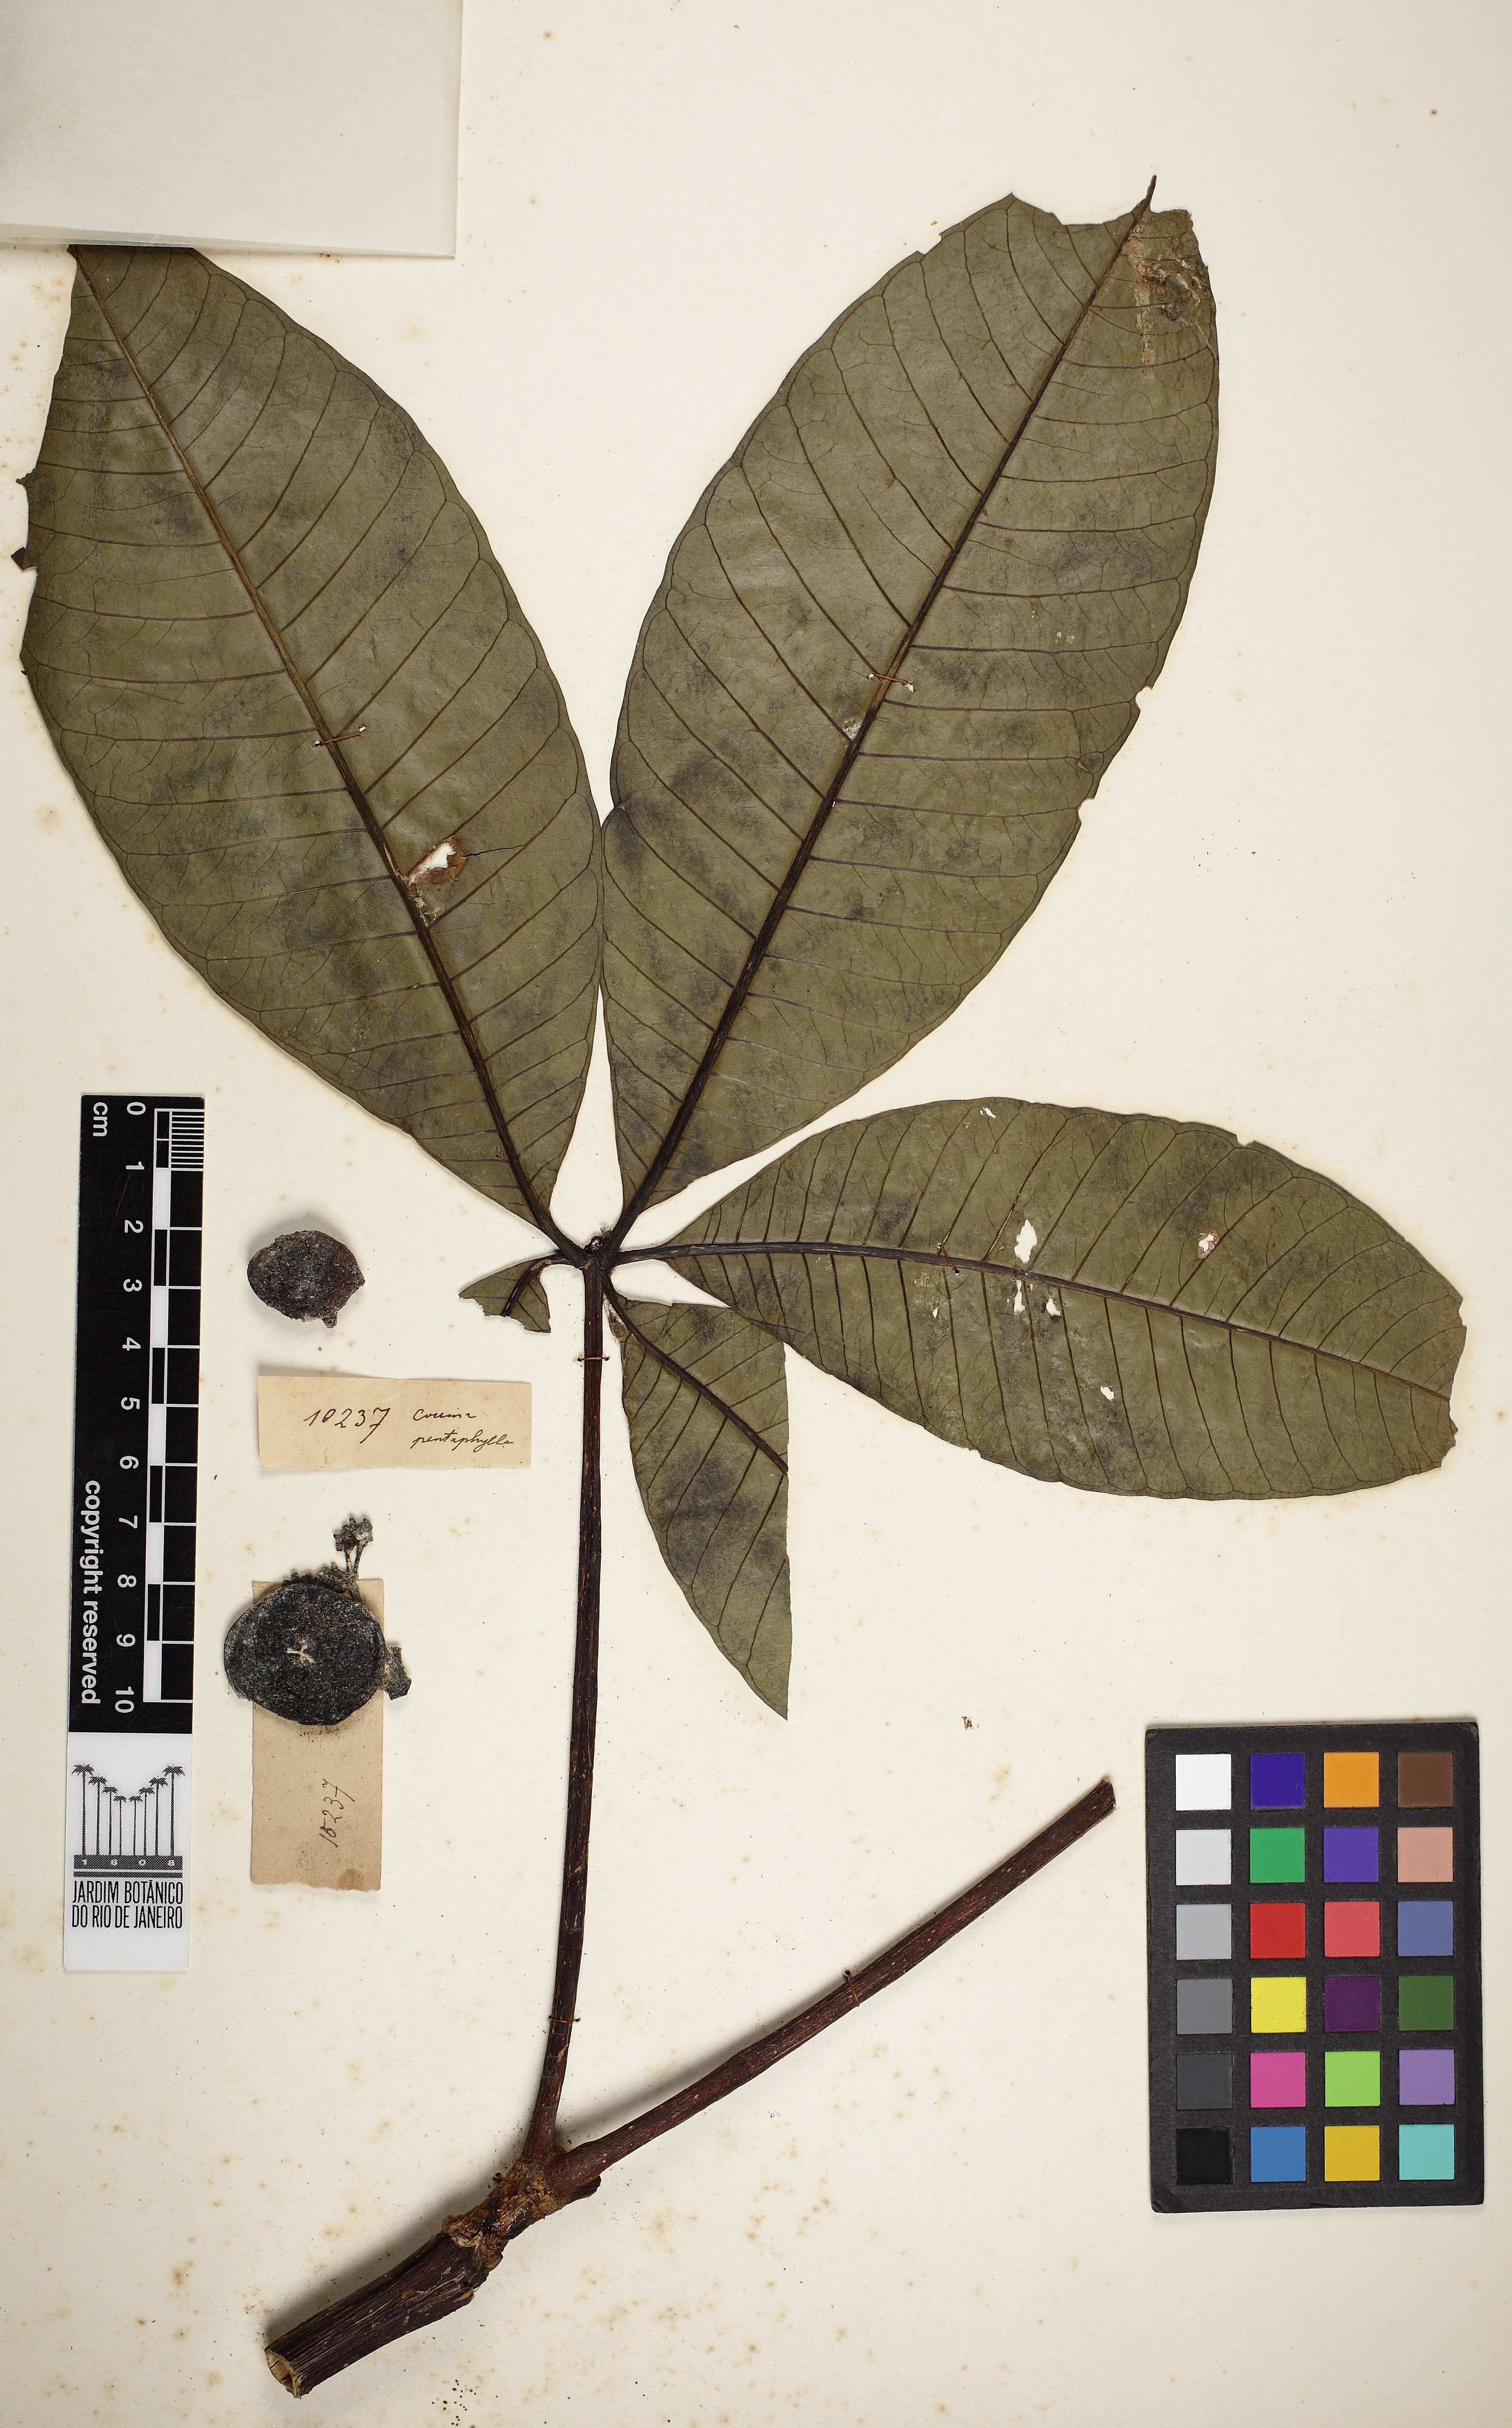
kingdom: Plantae
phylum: Tracheophyta
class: Magnoliopsida
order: Gentianales
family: Apocynaceae
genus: Rauvolfia
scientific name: Rauvolfia pentaphylla
